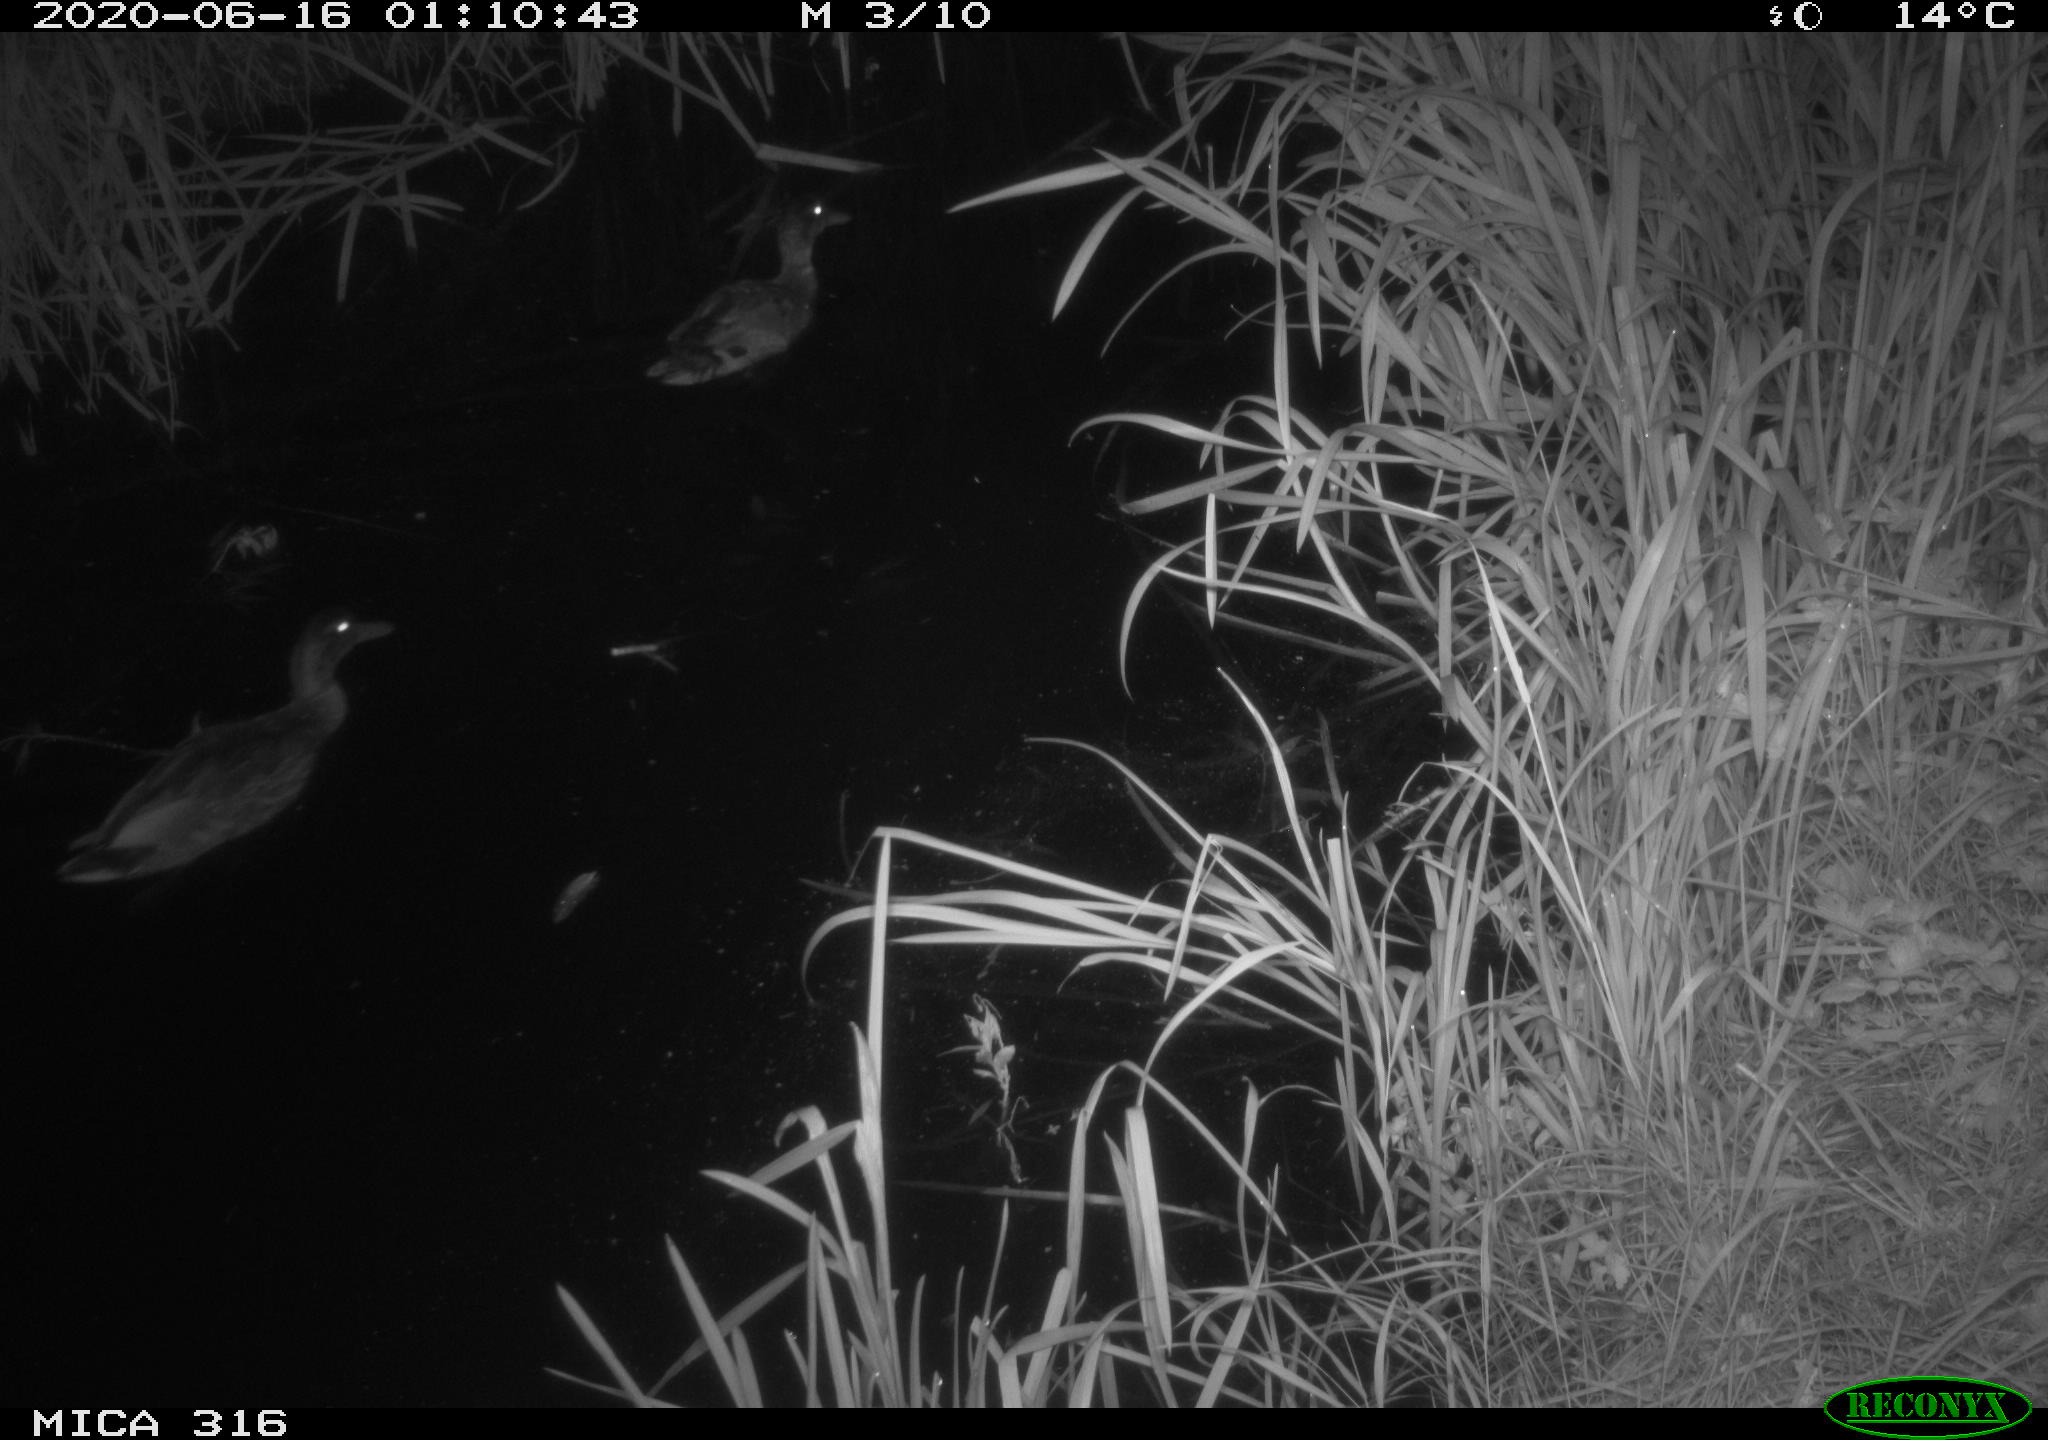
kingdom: Animalia
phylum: Chordata
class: Aves
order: Anseriformes
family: Anatidae
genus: Anas
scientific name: Anas platyrhynchos
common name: Mallard
